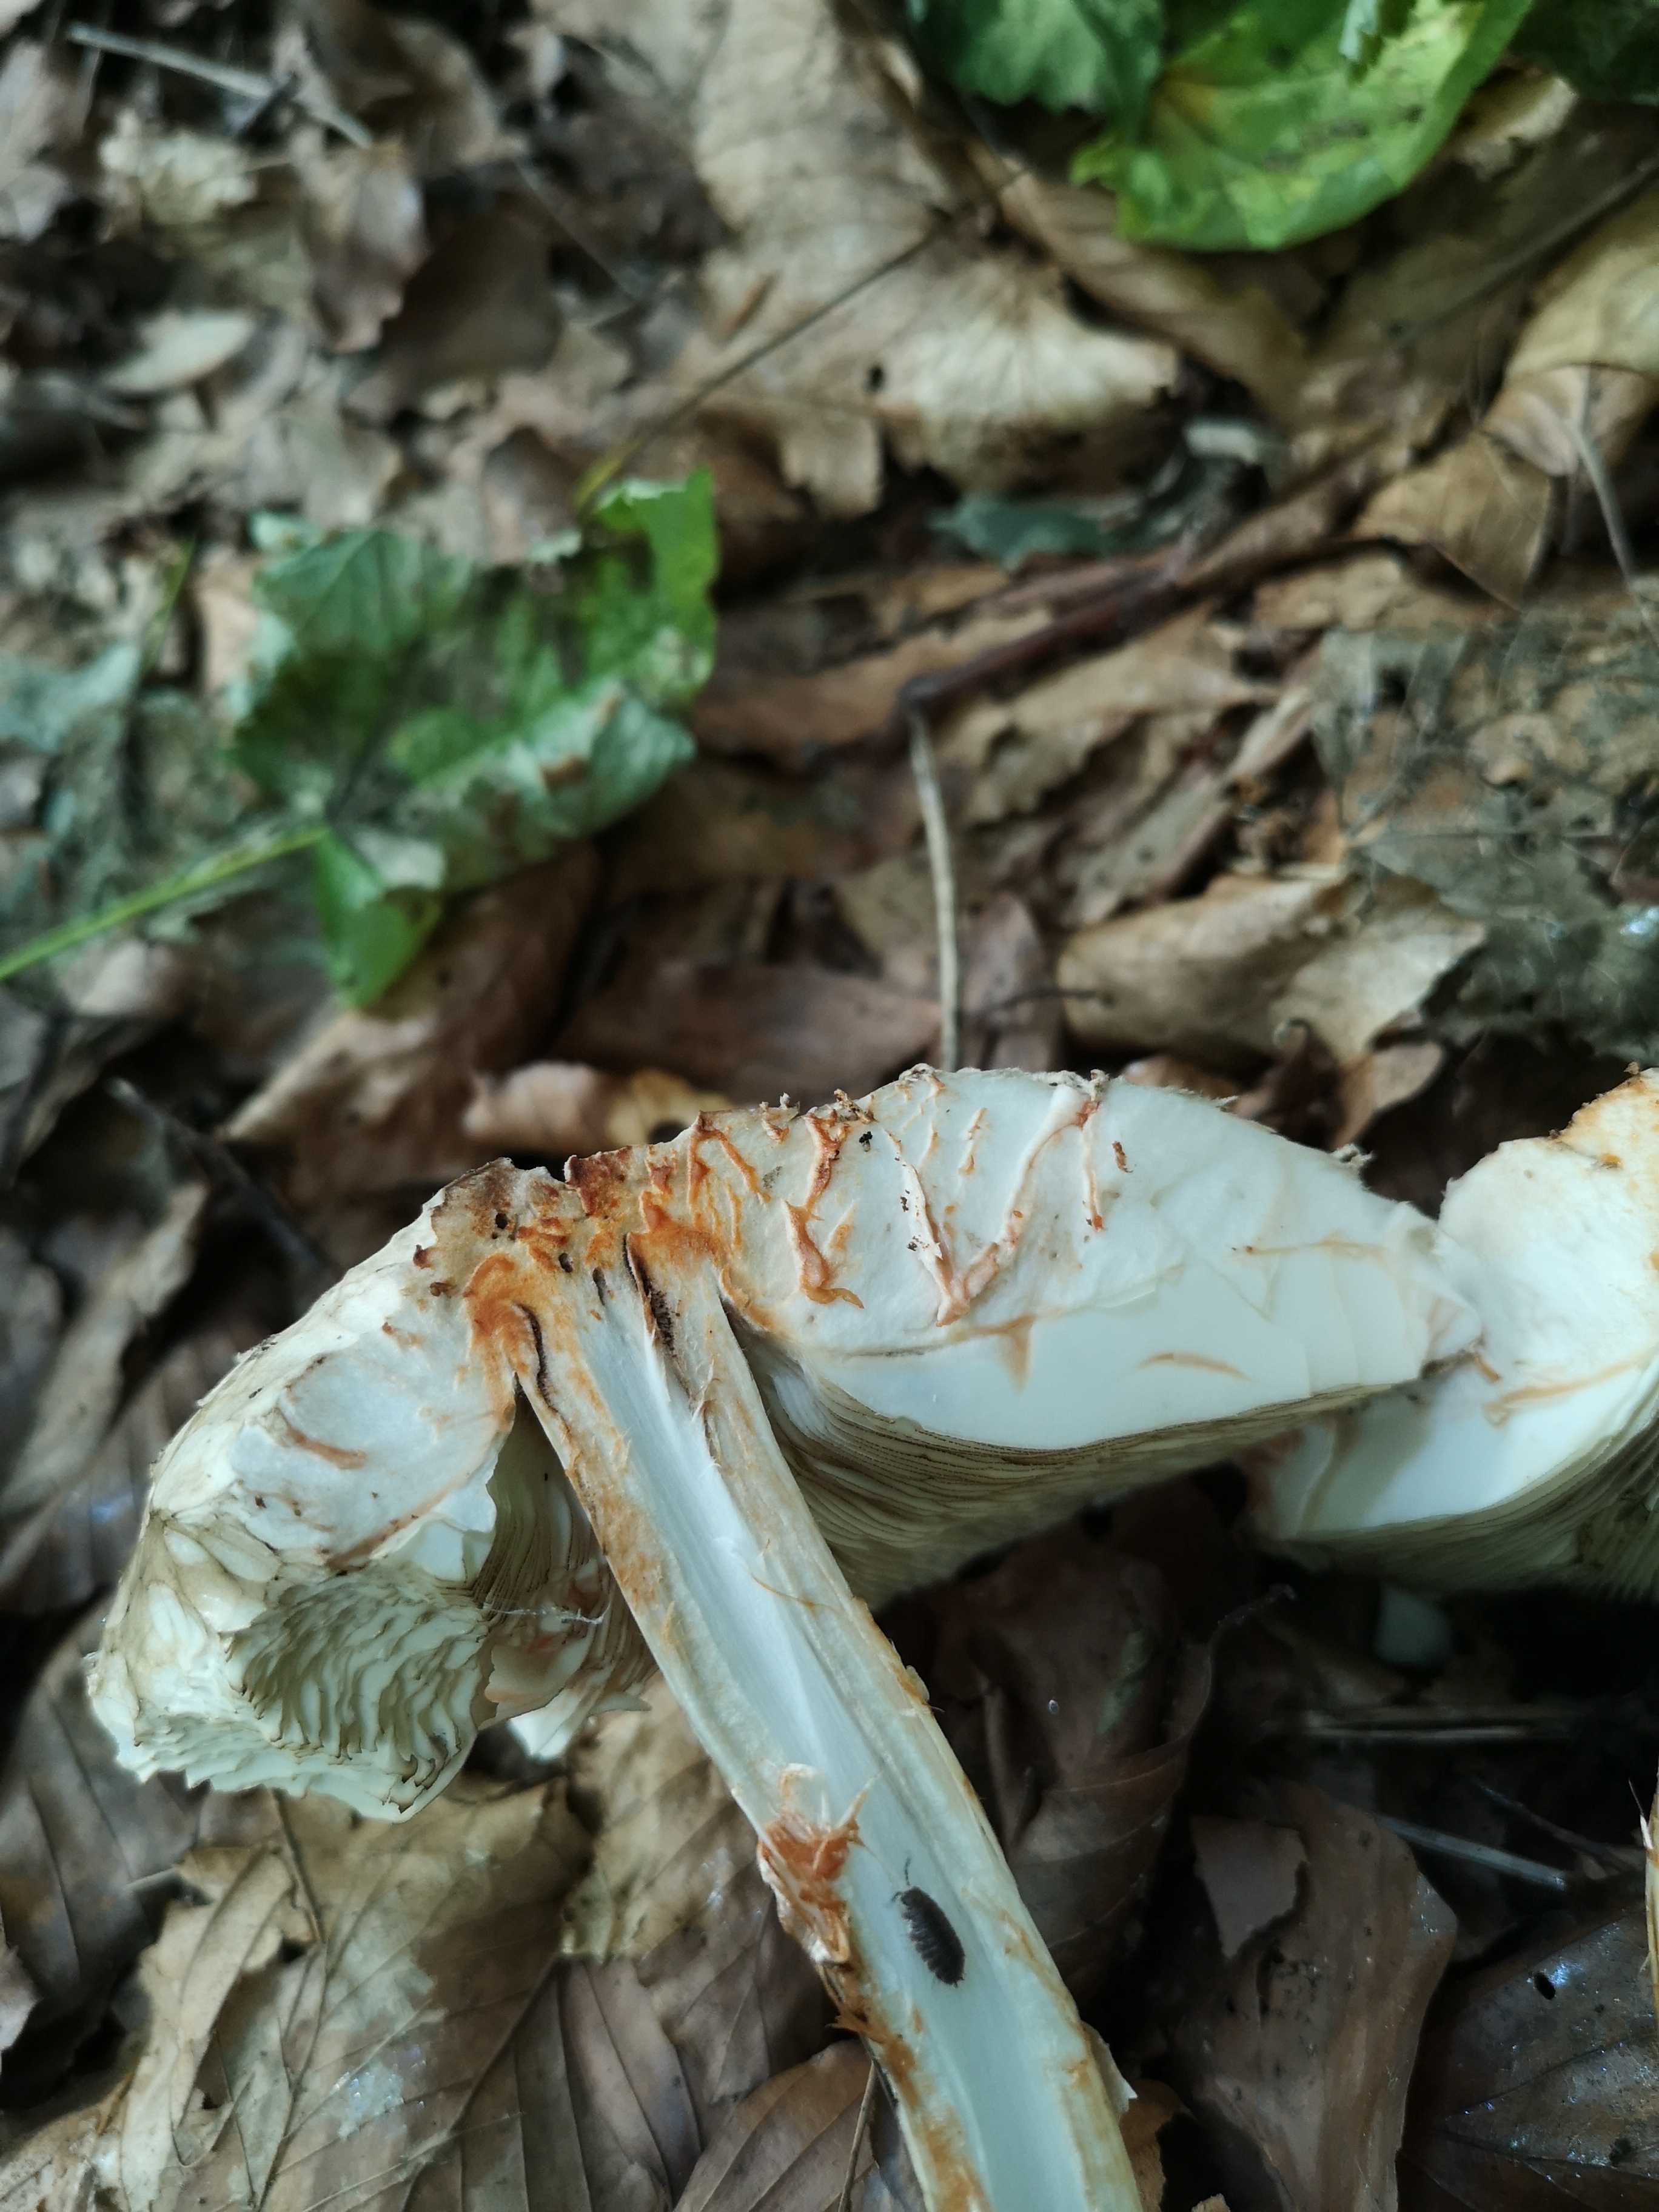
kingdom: Fungi
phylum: Basidiomycota
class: Agaricomycetes
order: Agaricales
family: Agaricaceae
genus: Chlorophyllum
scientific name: Chlorophyllum olivieri
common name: almindelig rabarberhat
